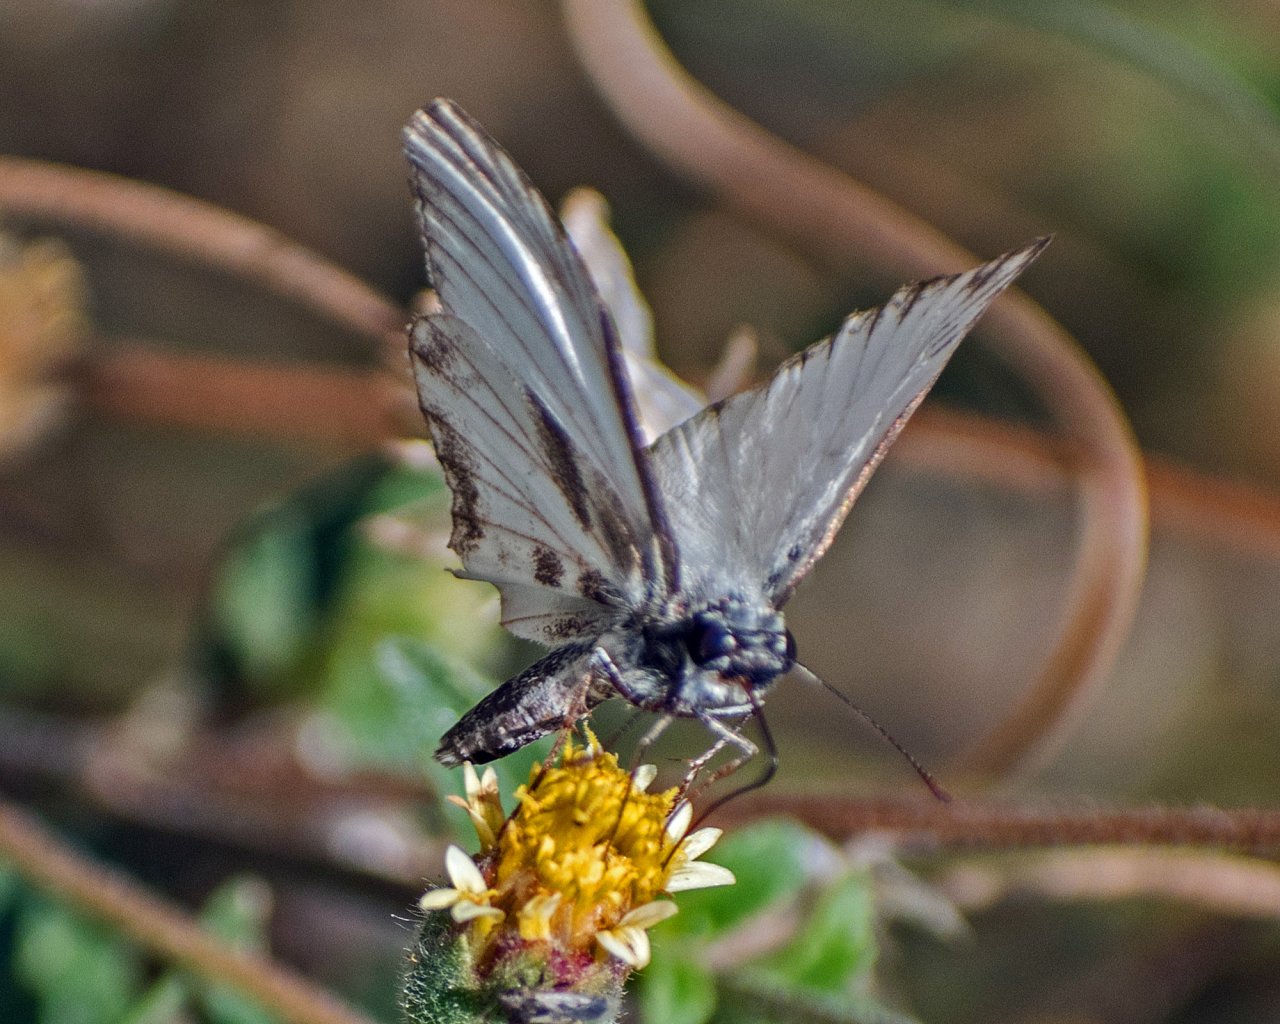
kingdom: Animalia
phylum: Arthropoda
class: Insecta
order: Lepidoptera
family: Hesperiidae
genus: Heliopetes
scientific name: Heliopetes macaira
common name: Turk's-cap White-Skipper
